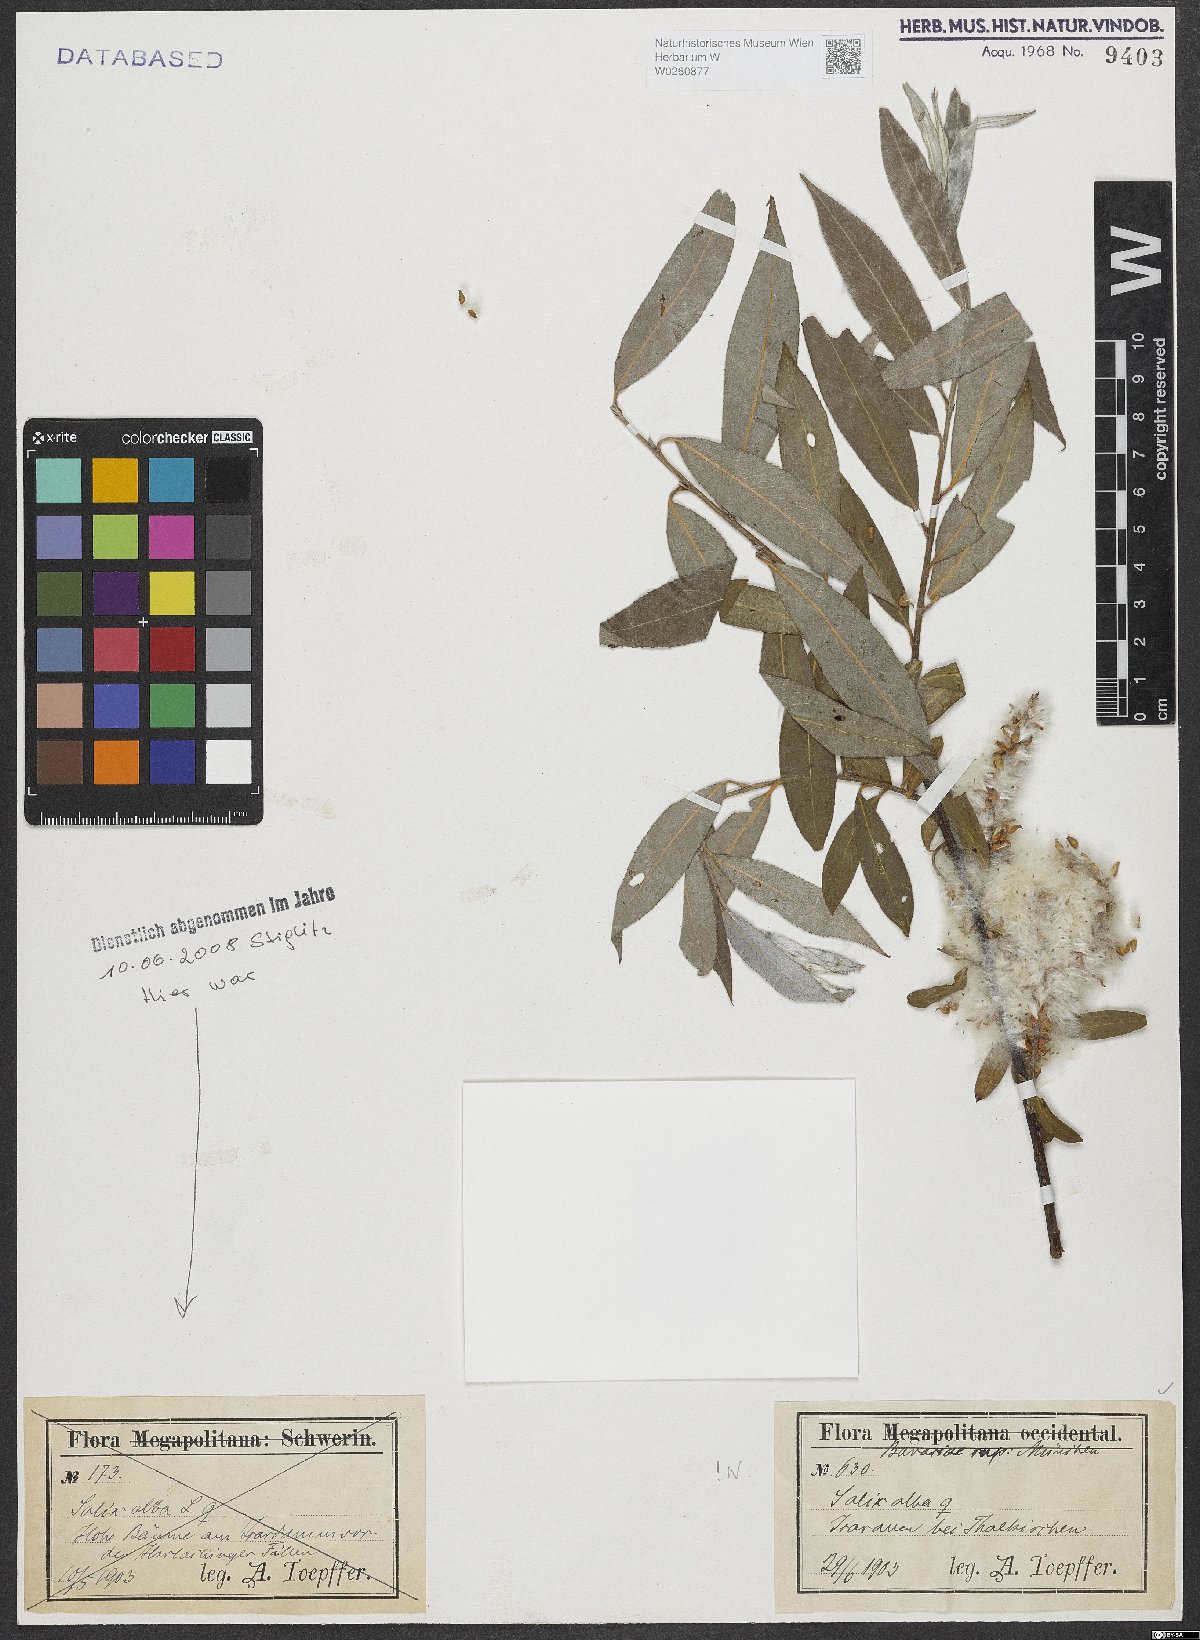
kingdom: Plantae
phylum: Tracheophyta
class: Magnoliopsida
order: Malpighiales
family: Salicaceae
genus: Salix
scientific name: Salix alba
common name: White willow
